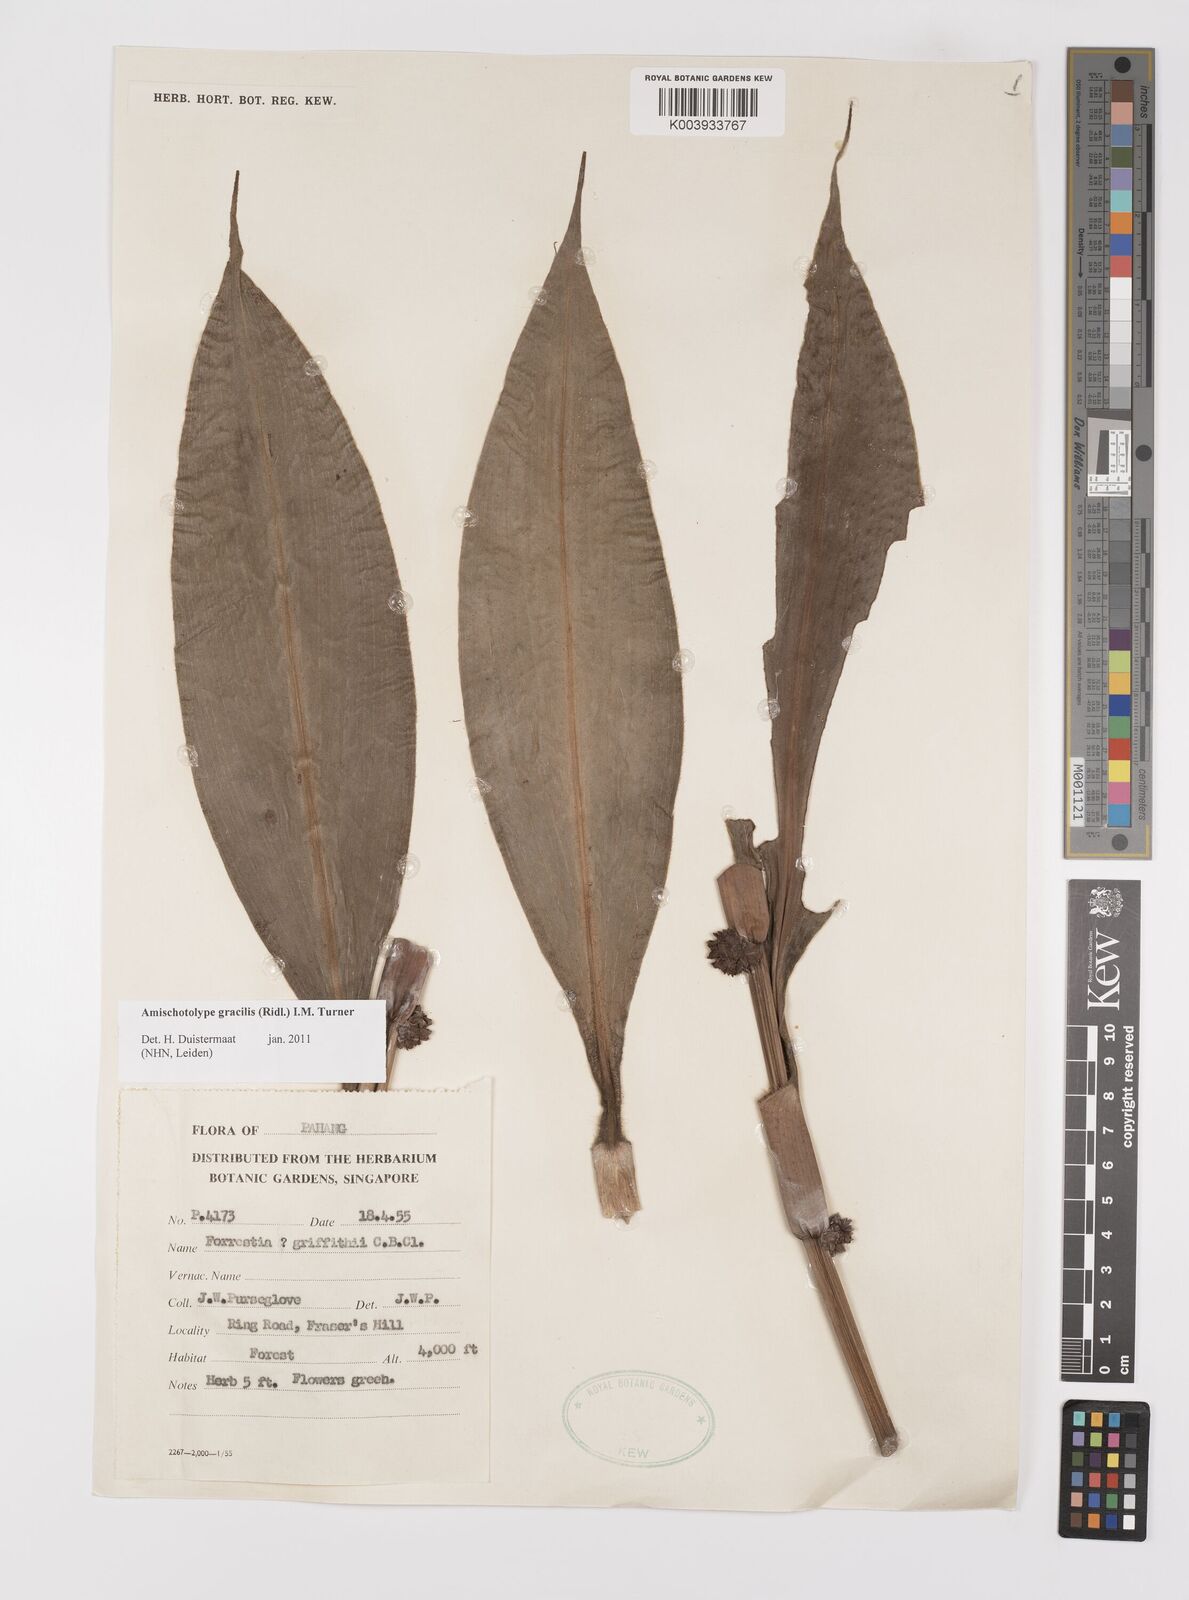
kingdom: Plantae
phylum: Tracheophyta
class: Liliopsida
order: Commelinales
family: Commelinaceae
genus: Amischotolype
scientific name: Amischotolype gracilis
